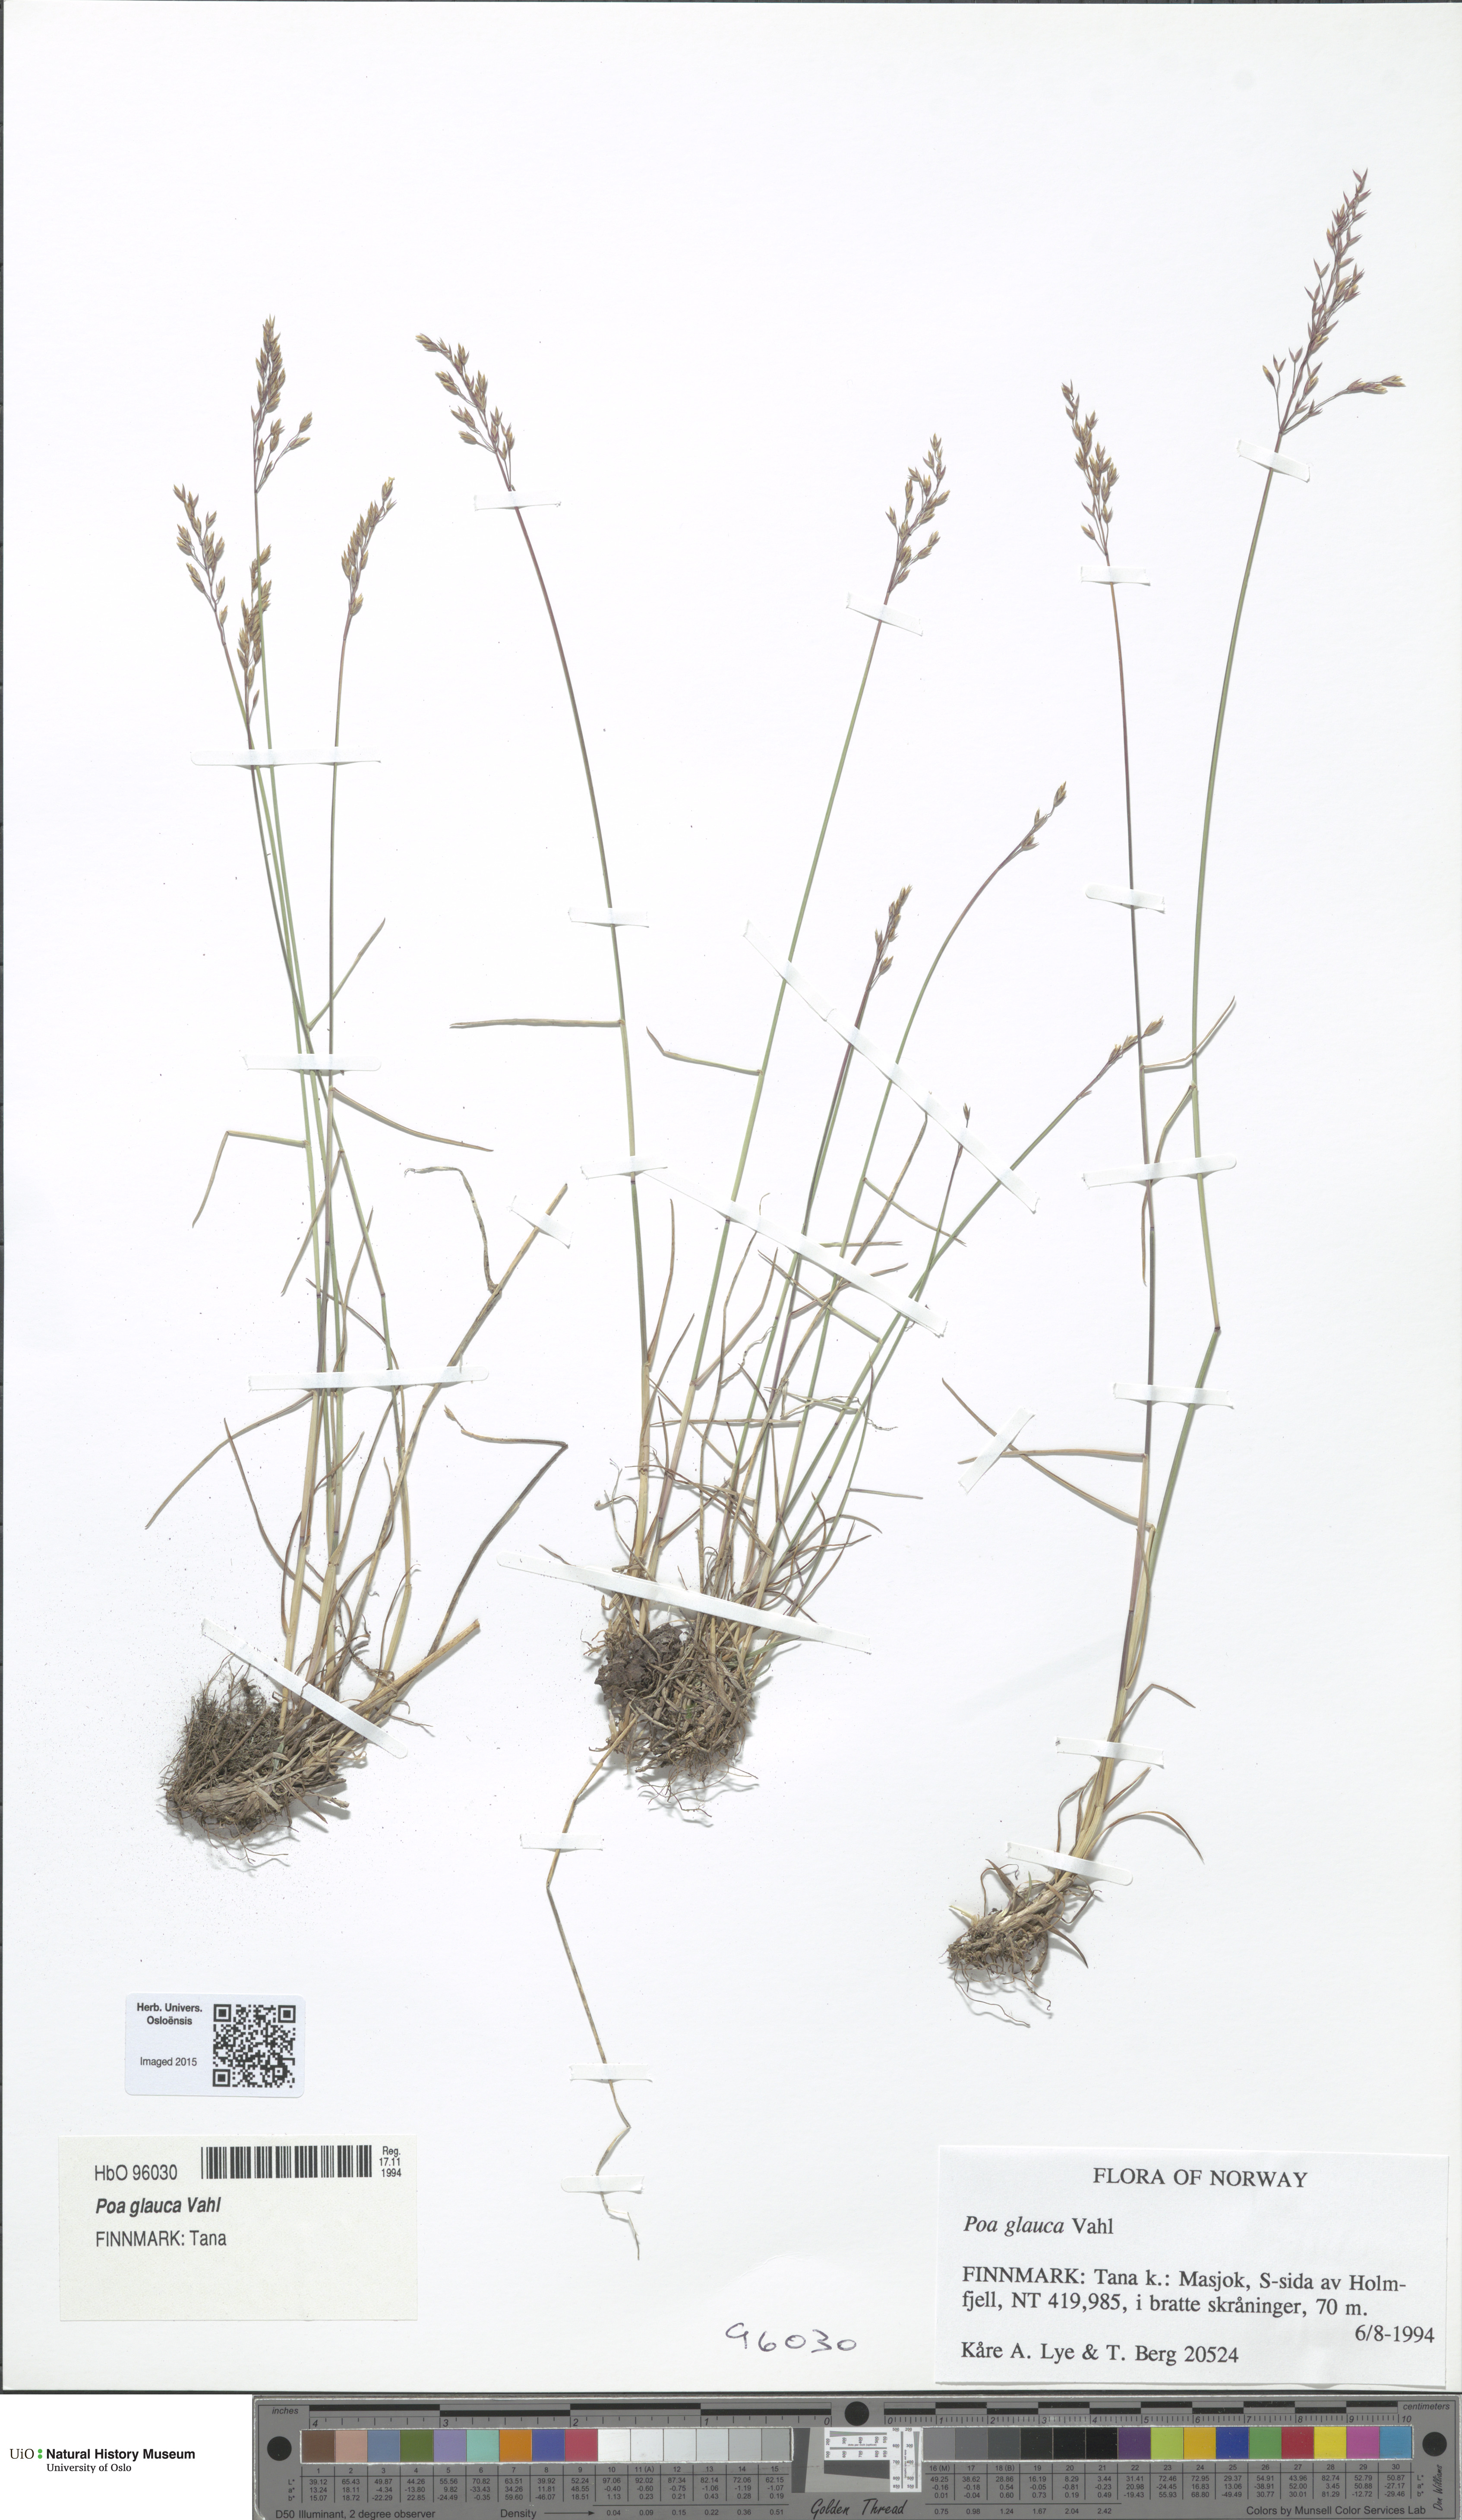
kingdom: Plantae
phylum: Tracheophyta
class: Liliopsida
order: Poales
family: Poaceae
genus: Poa
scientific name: Poa glauca
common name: Glaucous bluegrass
